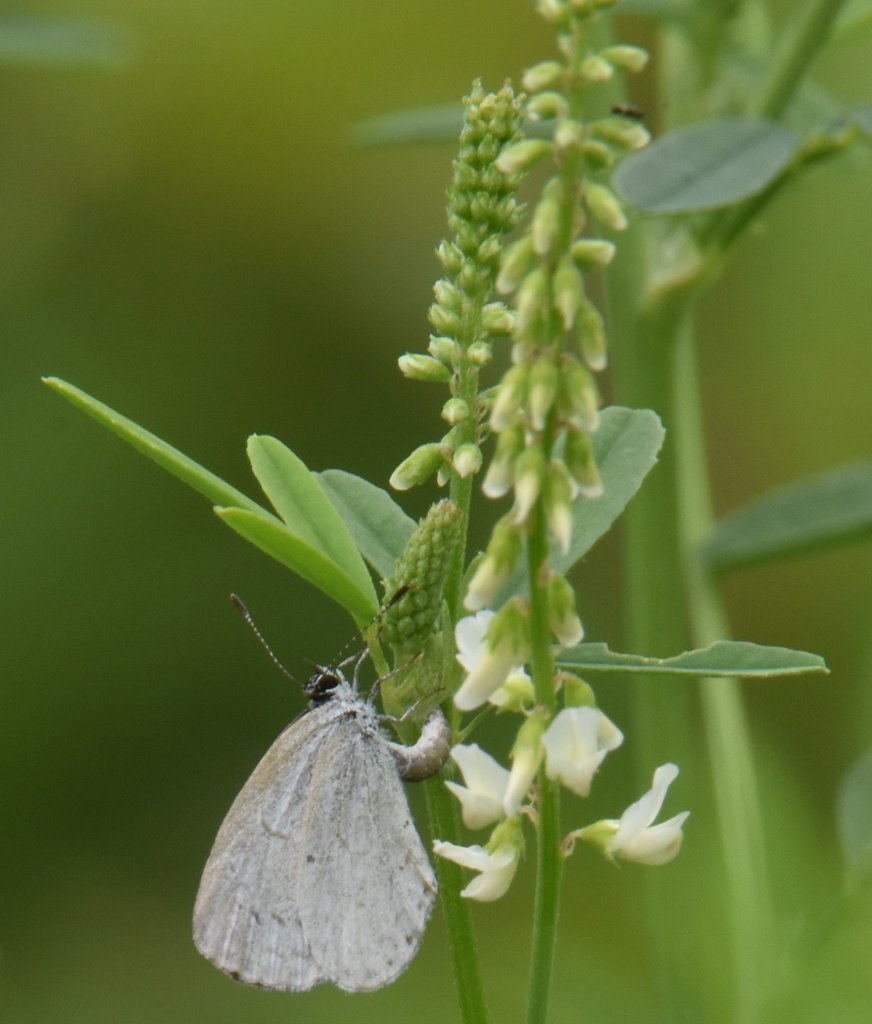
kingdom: Animalia
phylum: Arthropoda
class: Insecta
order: Lepidoptera
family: Lycaenidae
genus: Celastrina
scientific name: Celastrina
